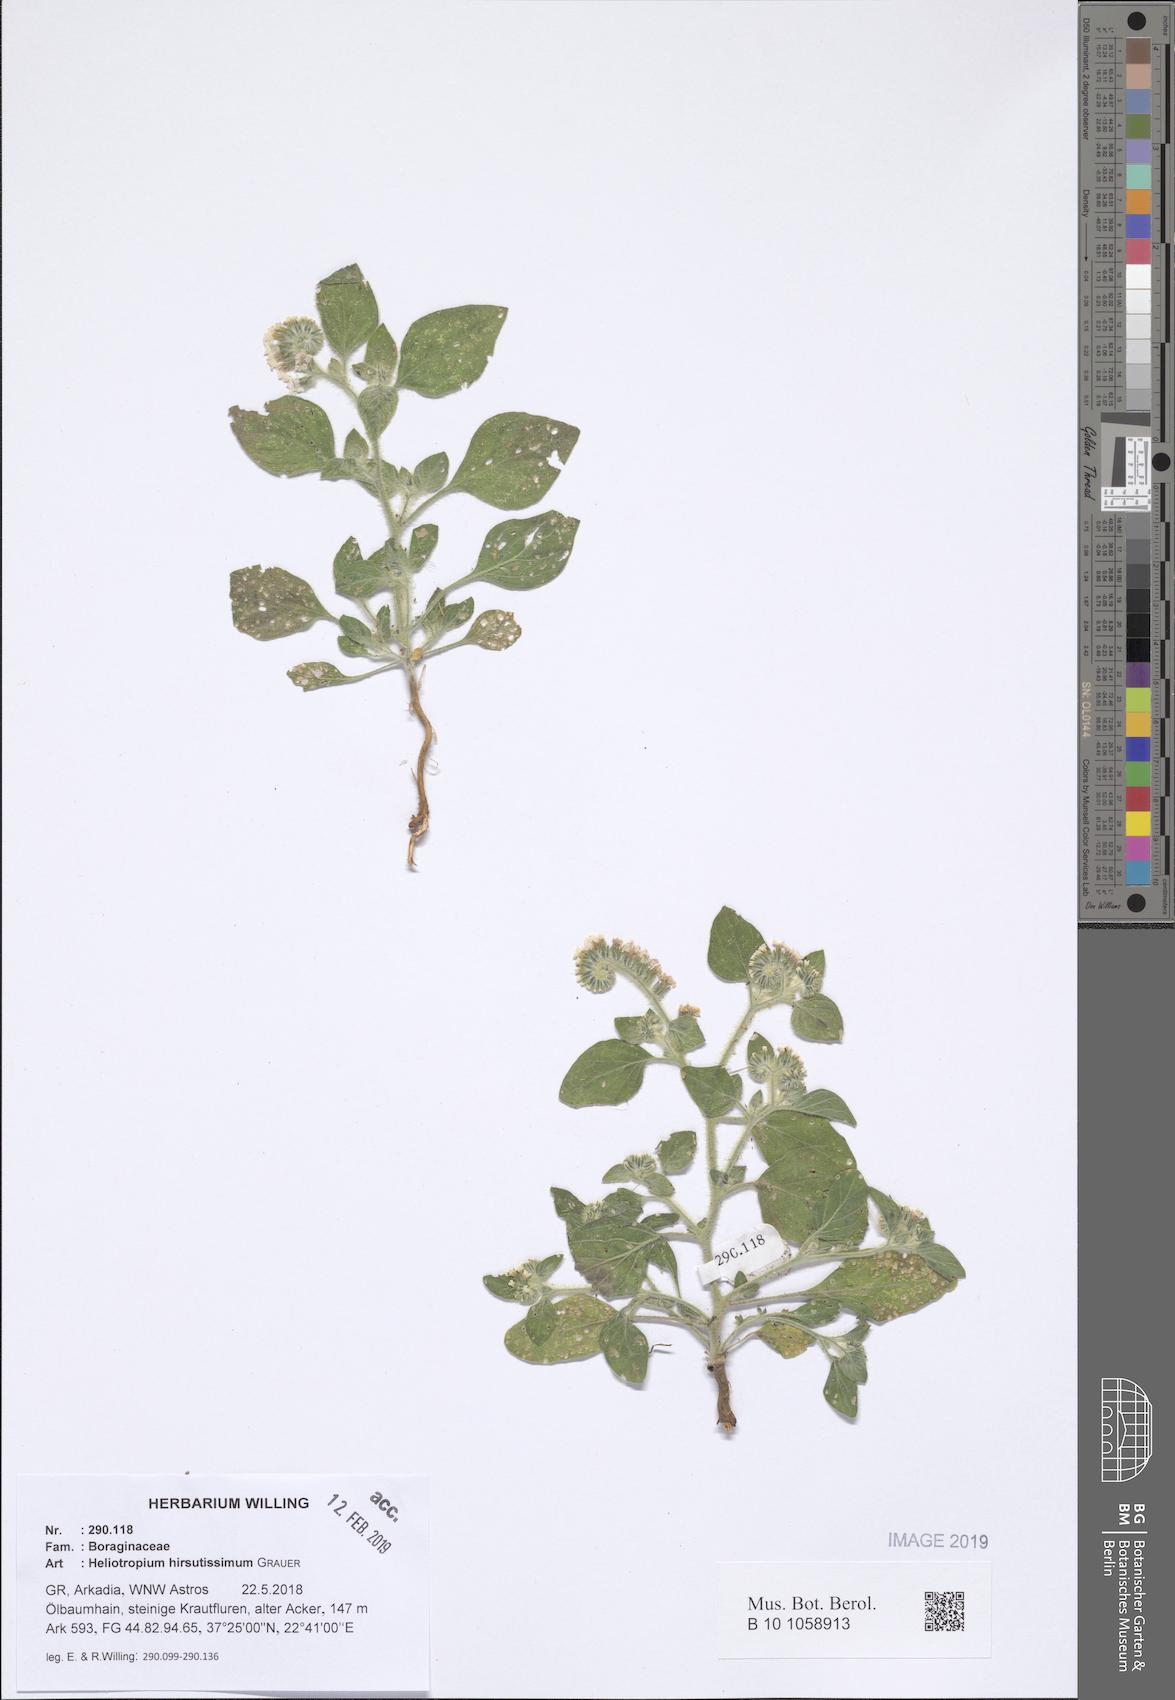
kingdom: Plantae
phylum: Tracheophyta
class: Magnoliopsida
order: Boraginales
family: Heliotropiaceae
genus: Heliotropium
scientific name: Heliotropium hirsutissimum
